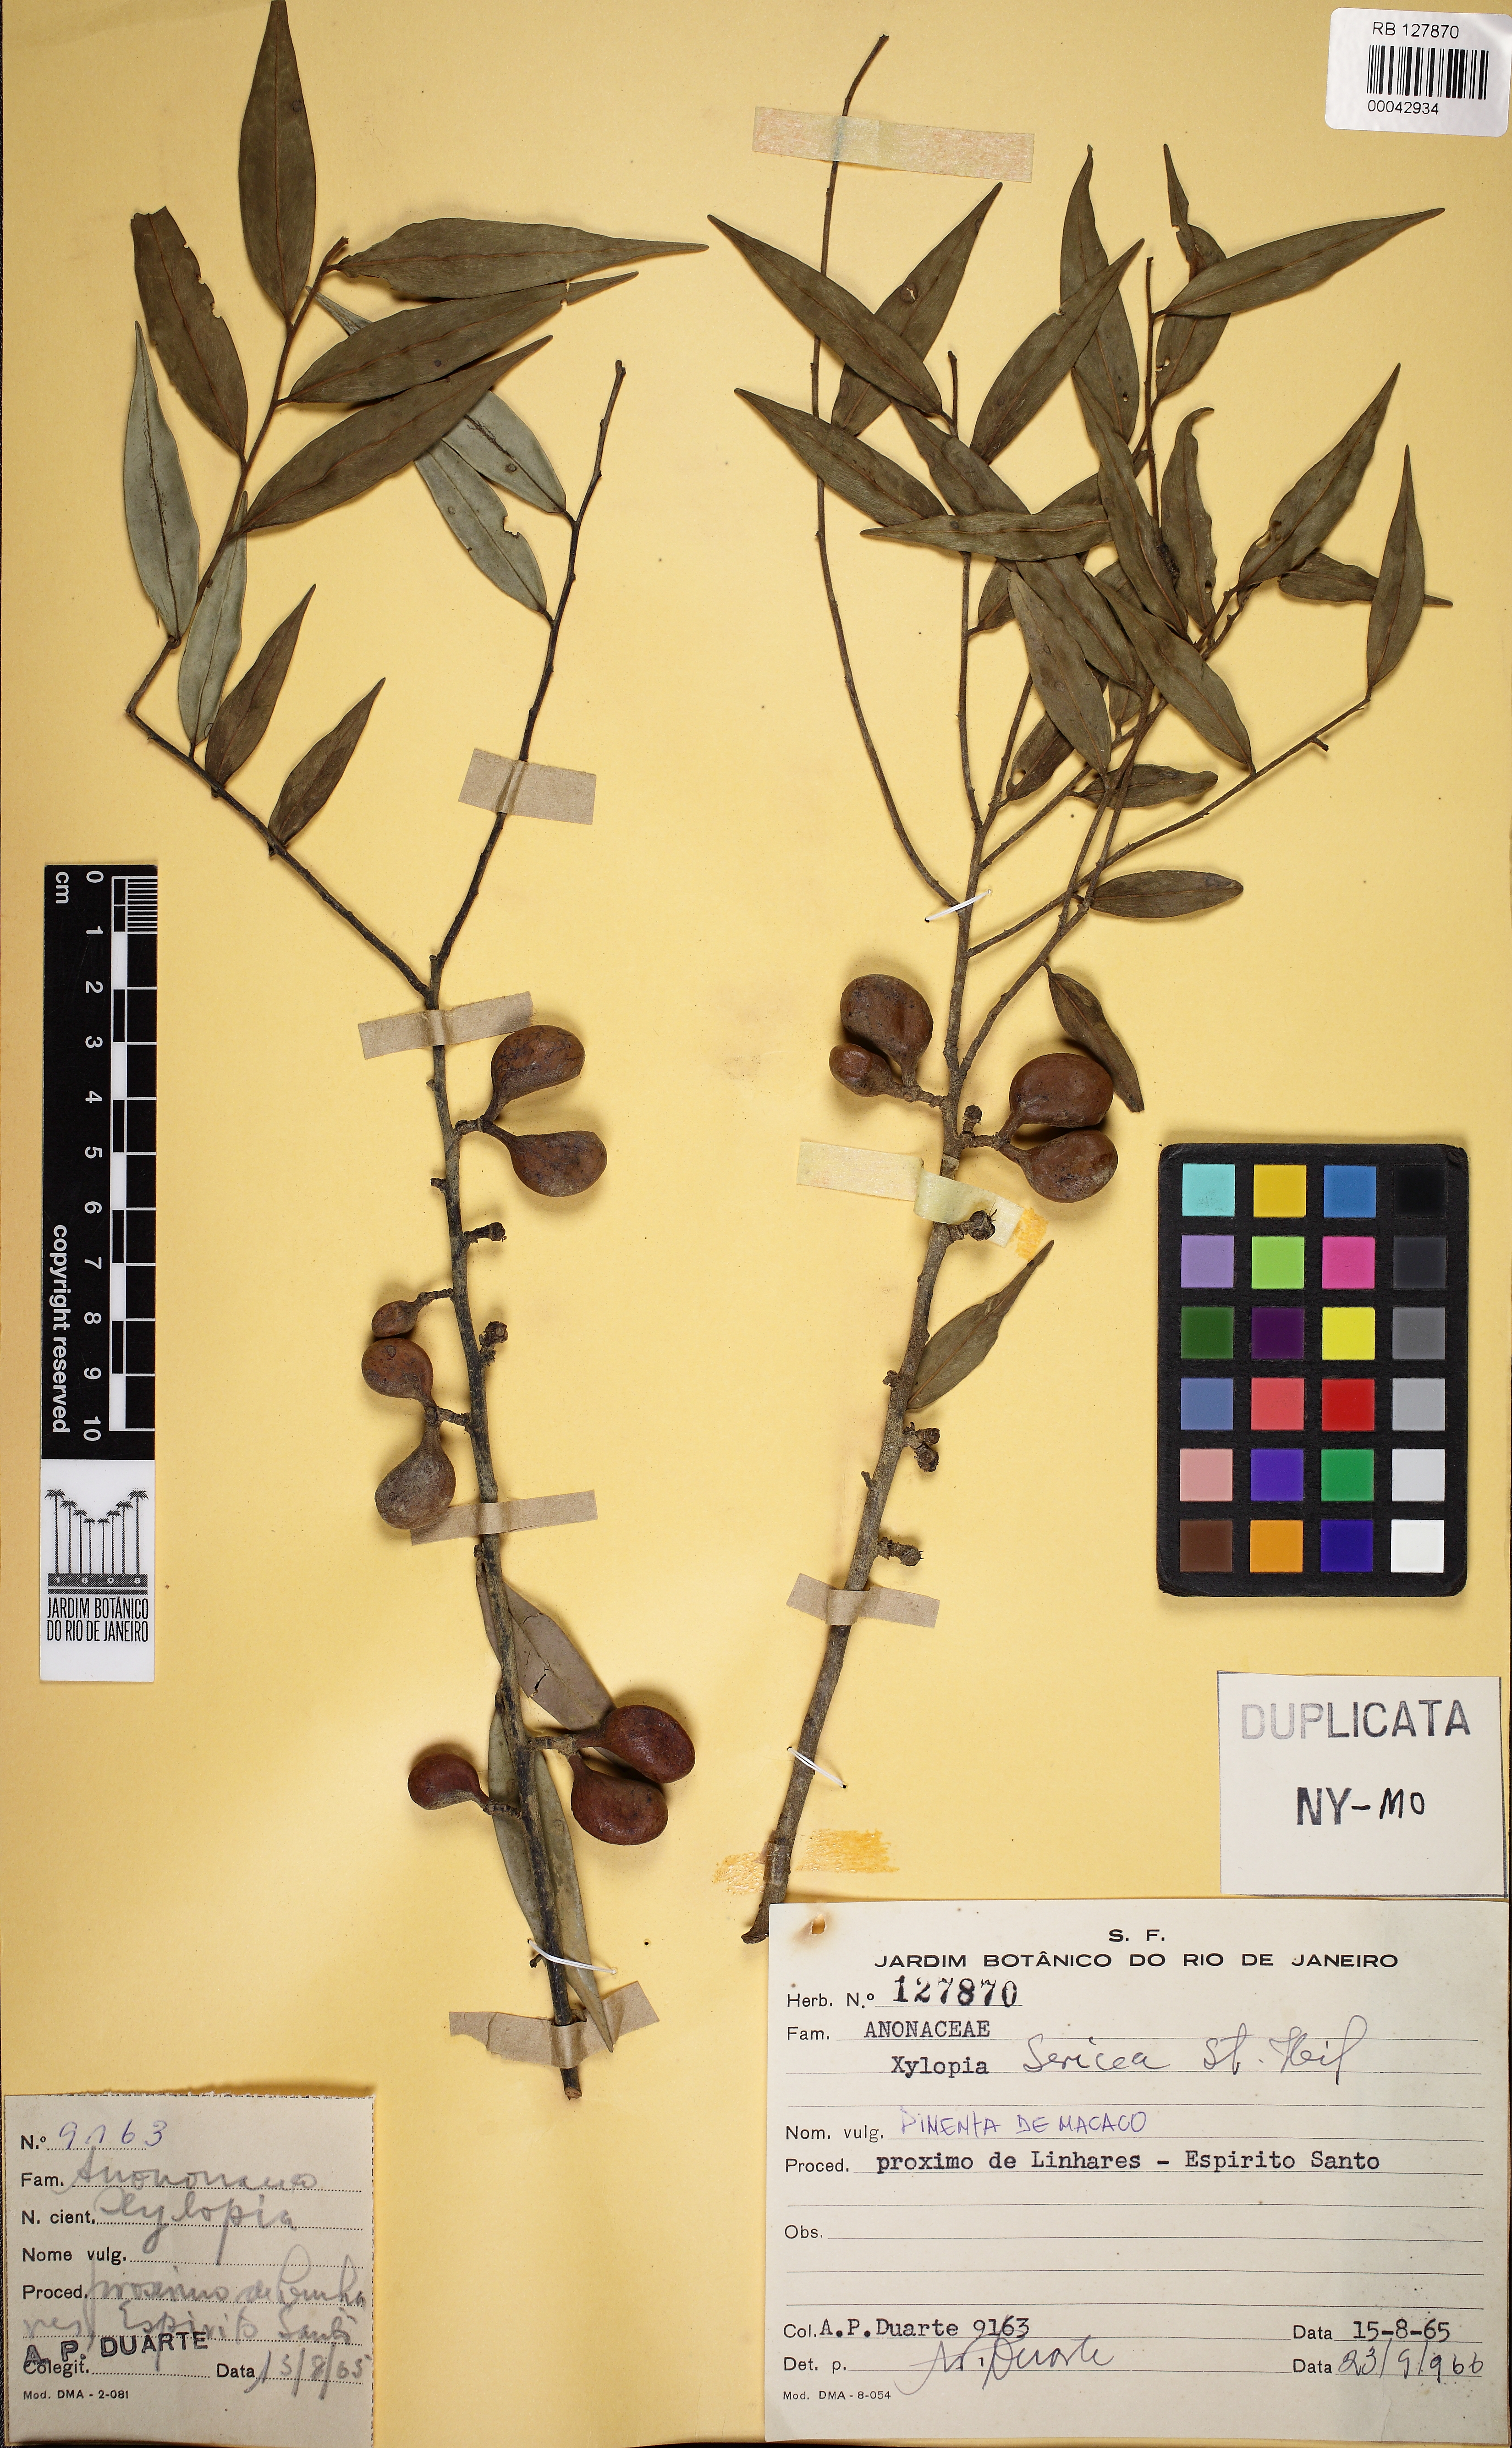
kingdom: Plantae
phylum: Tracheophyta
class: Magnoliopsida
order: Magnoliales
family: Annonaceae
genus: Xylopia
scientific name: Xylopia sericea
